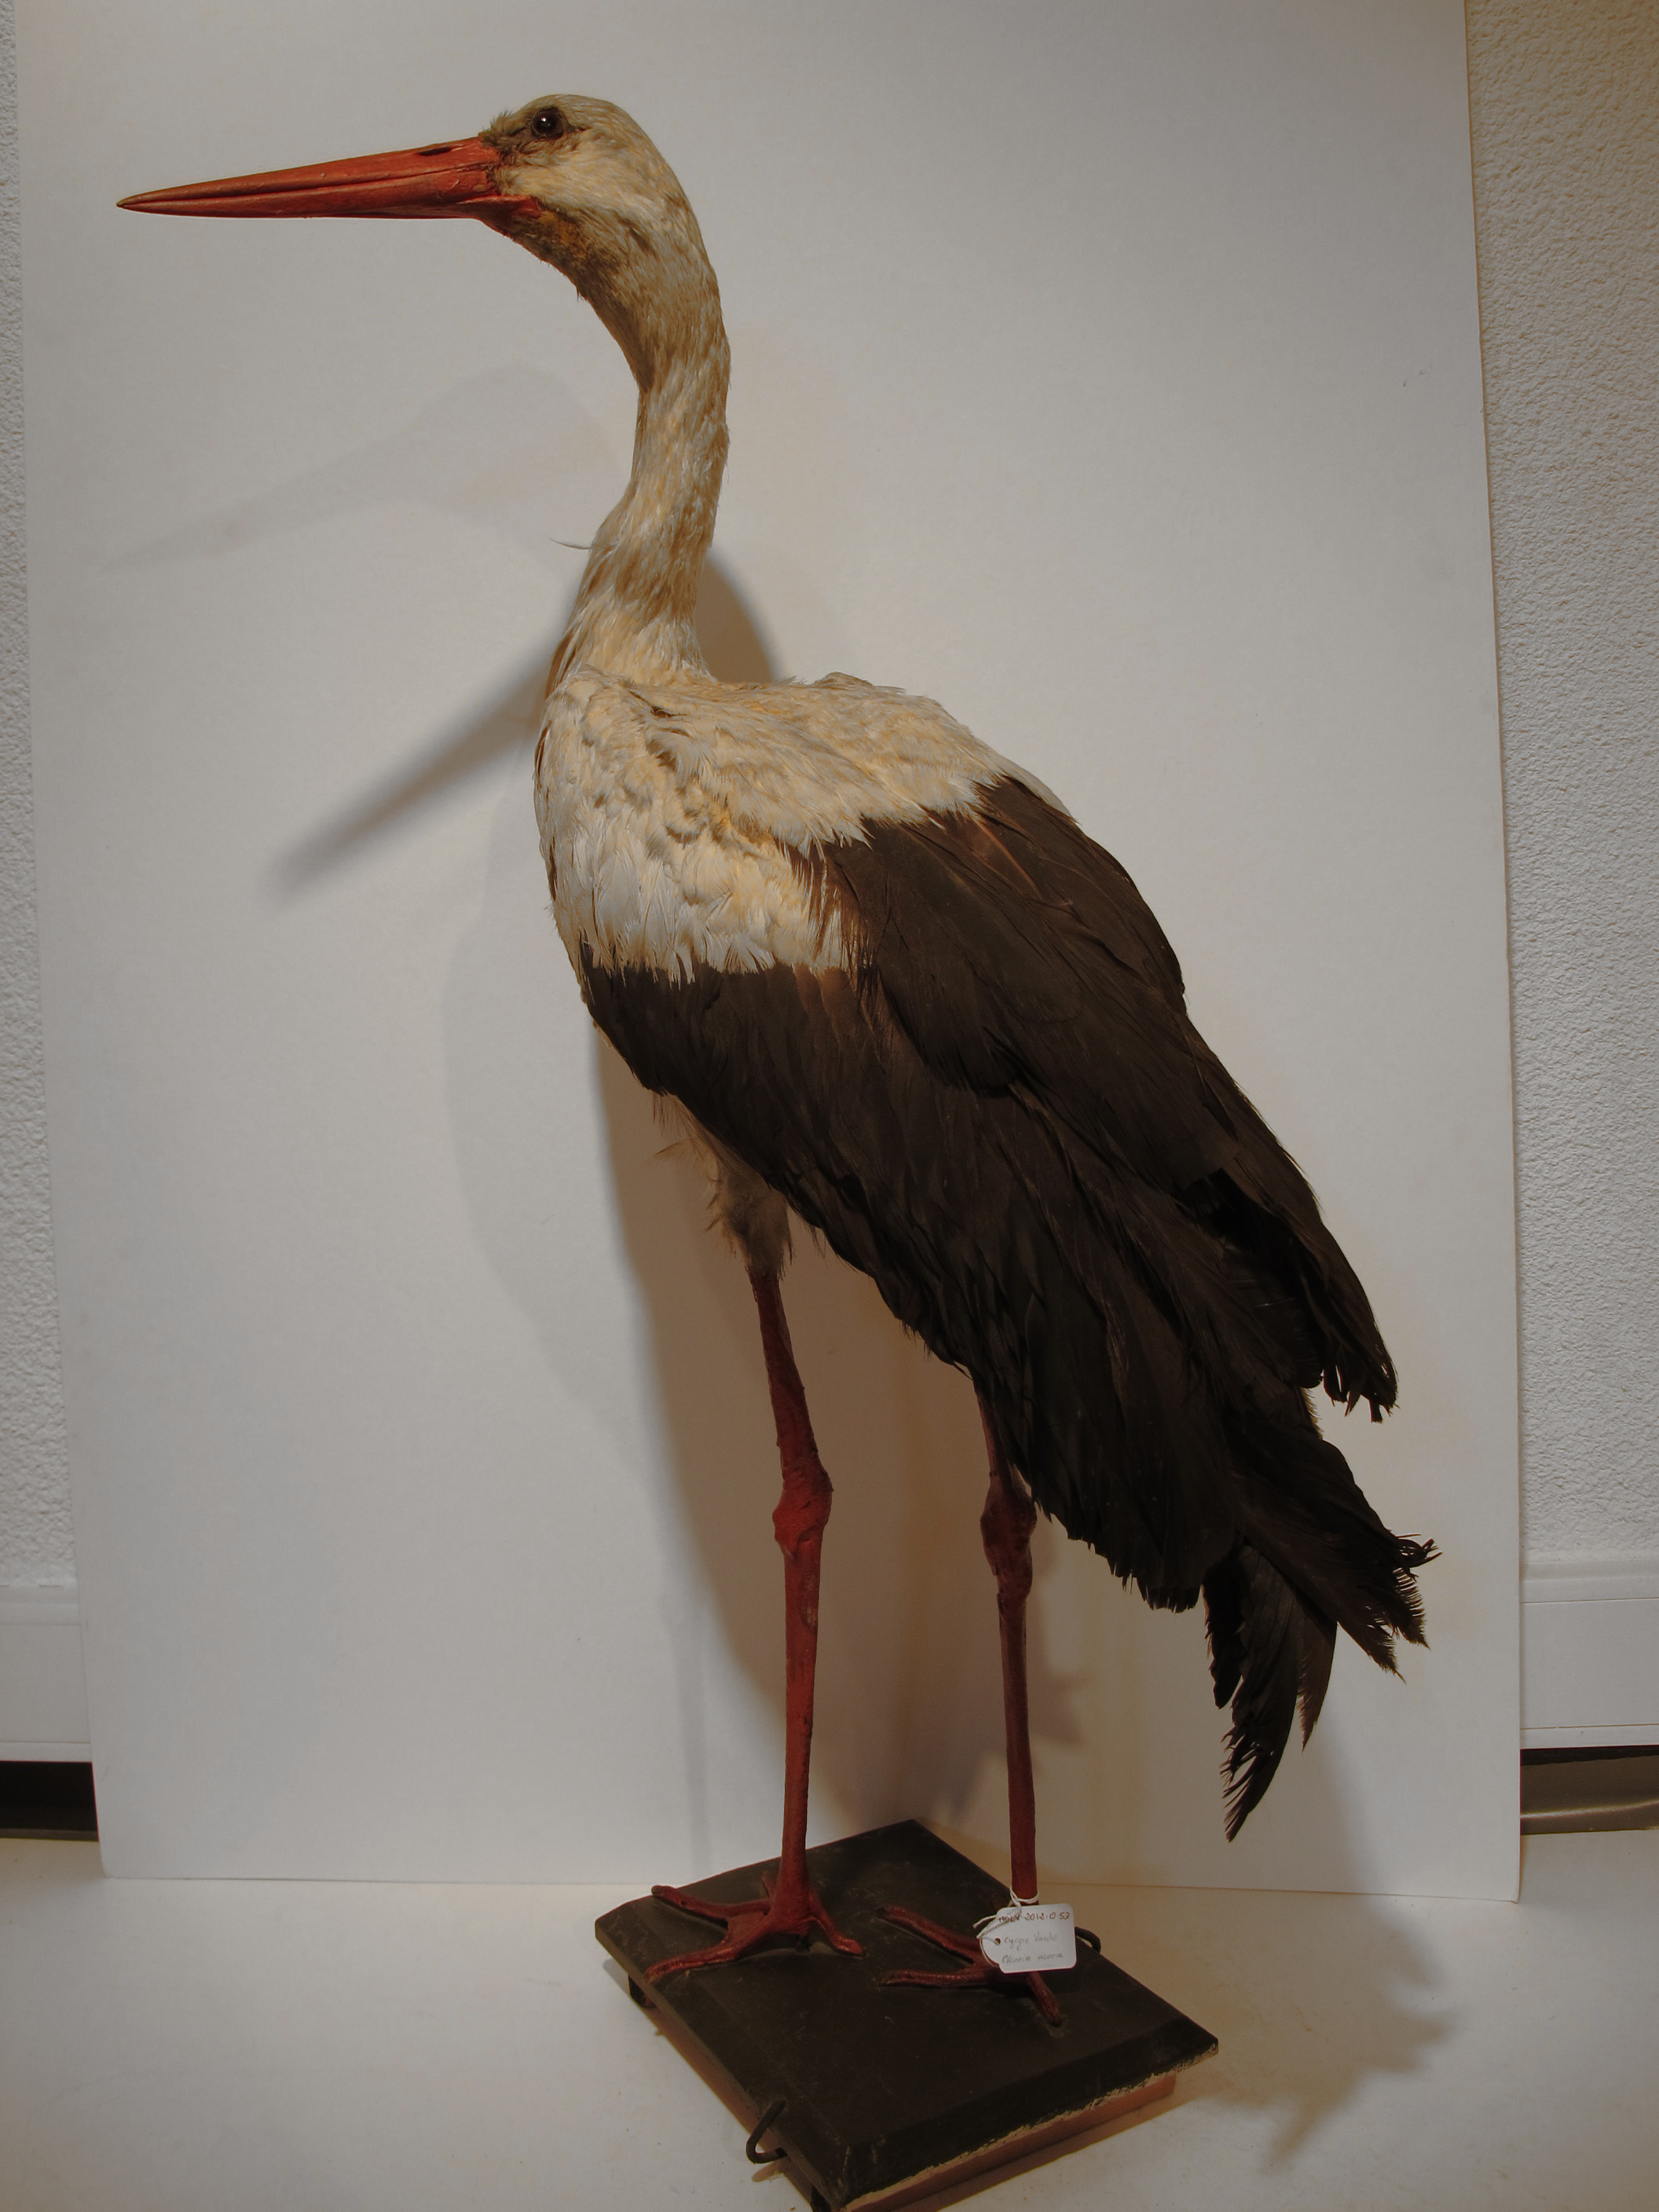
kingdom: Animalia
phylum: Chordata
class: Aves
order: Ciconiiformes
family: Ciconiidae
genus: Ciconia
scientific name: Ciconia ciconia
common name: European White Stork
